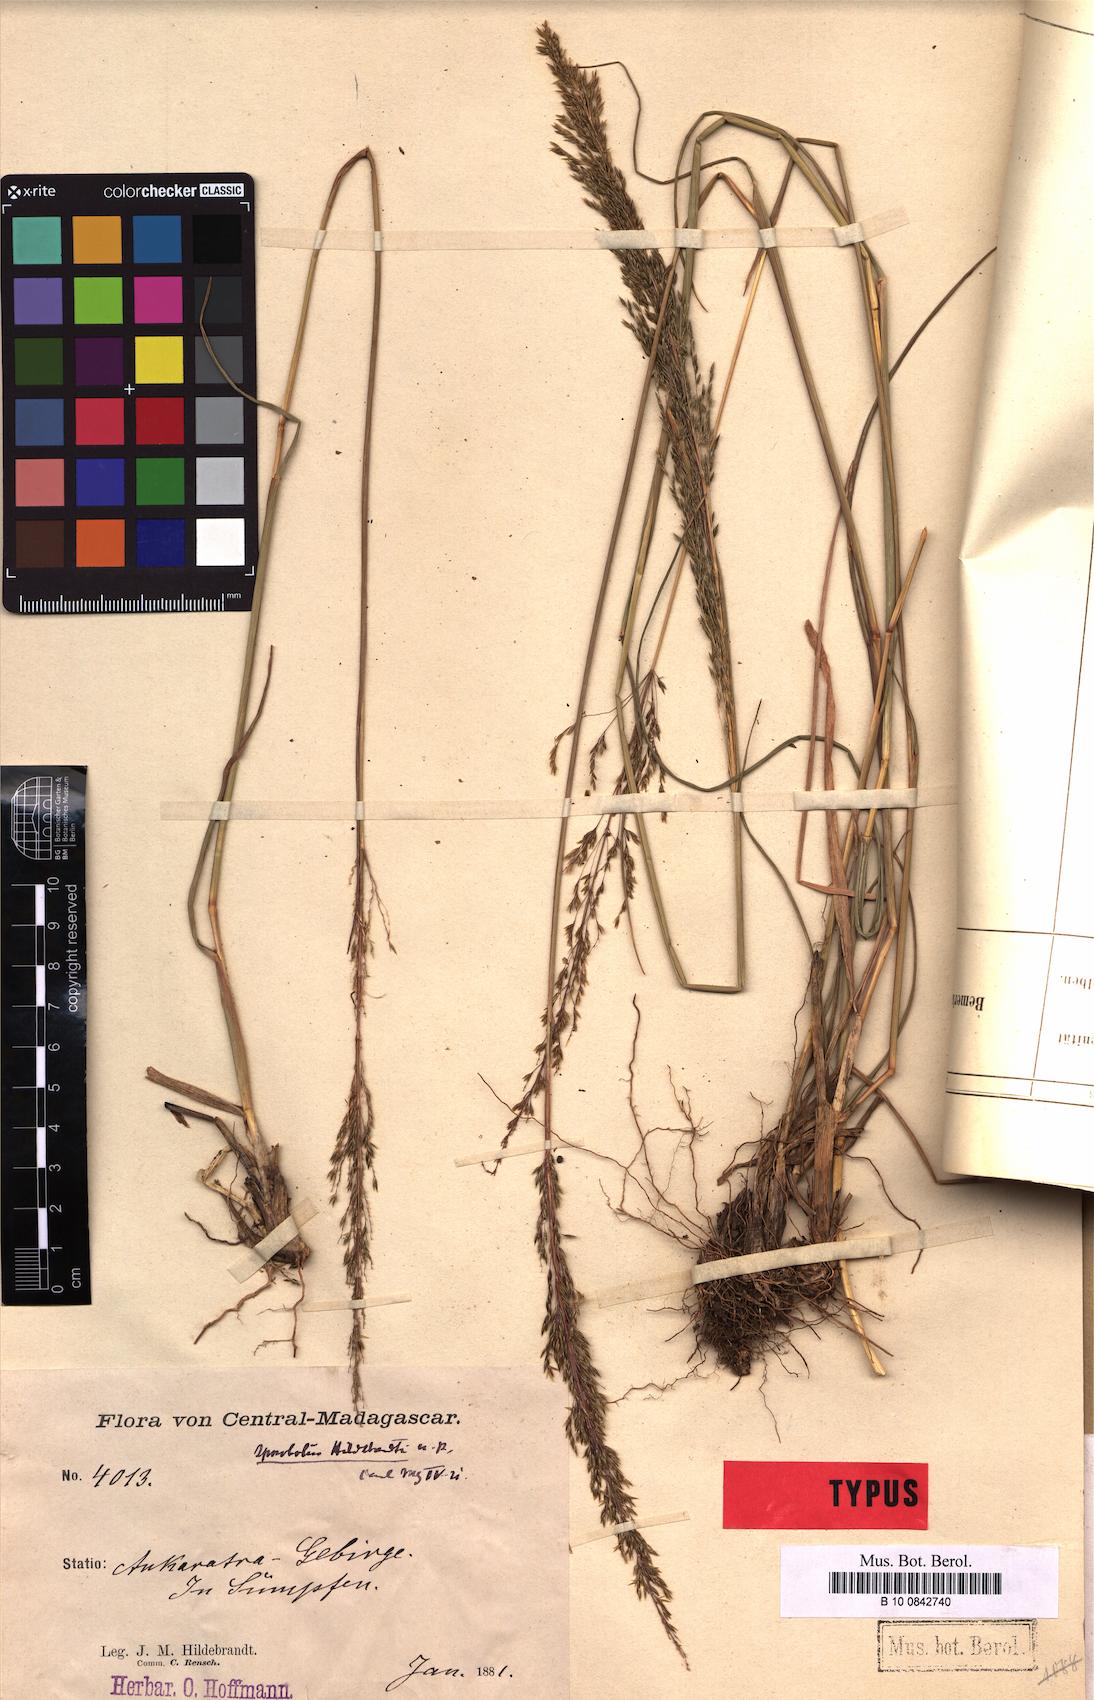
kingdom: Plantae
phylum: Tracheophyta
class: Liliopsida
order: Poales
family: Poaceae
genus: Sporobolus
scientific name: Sporobolus centrifugus
